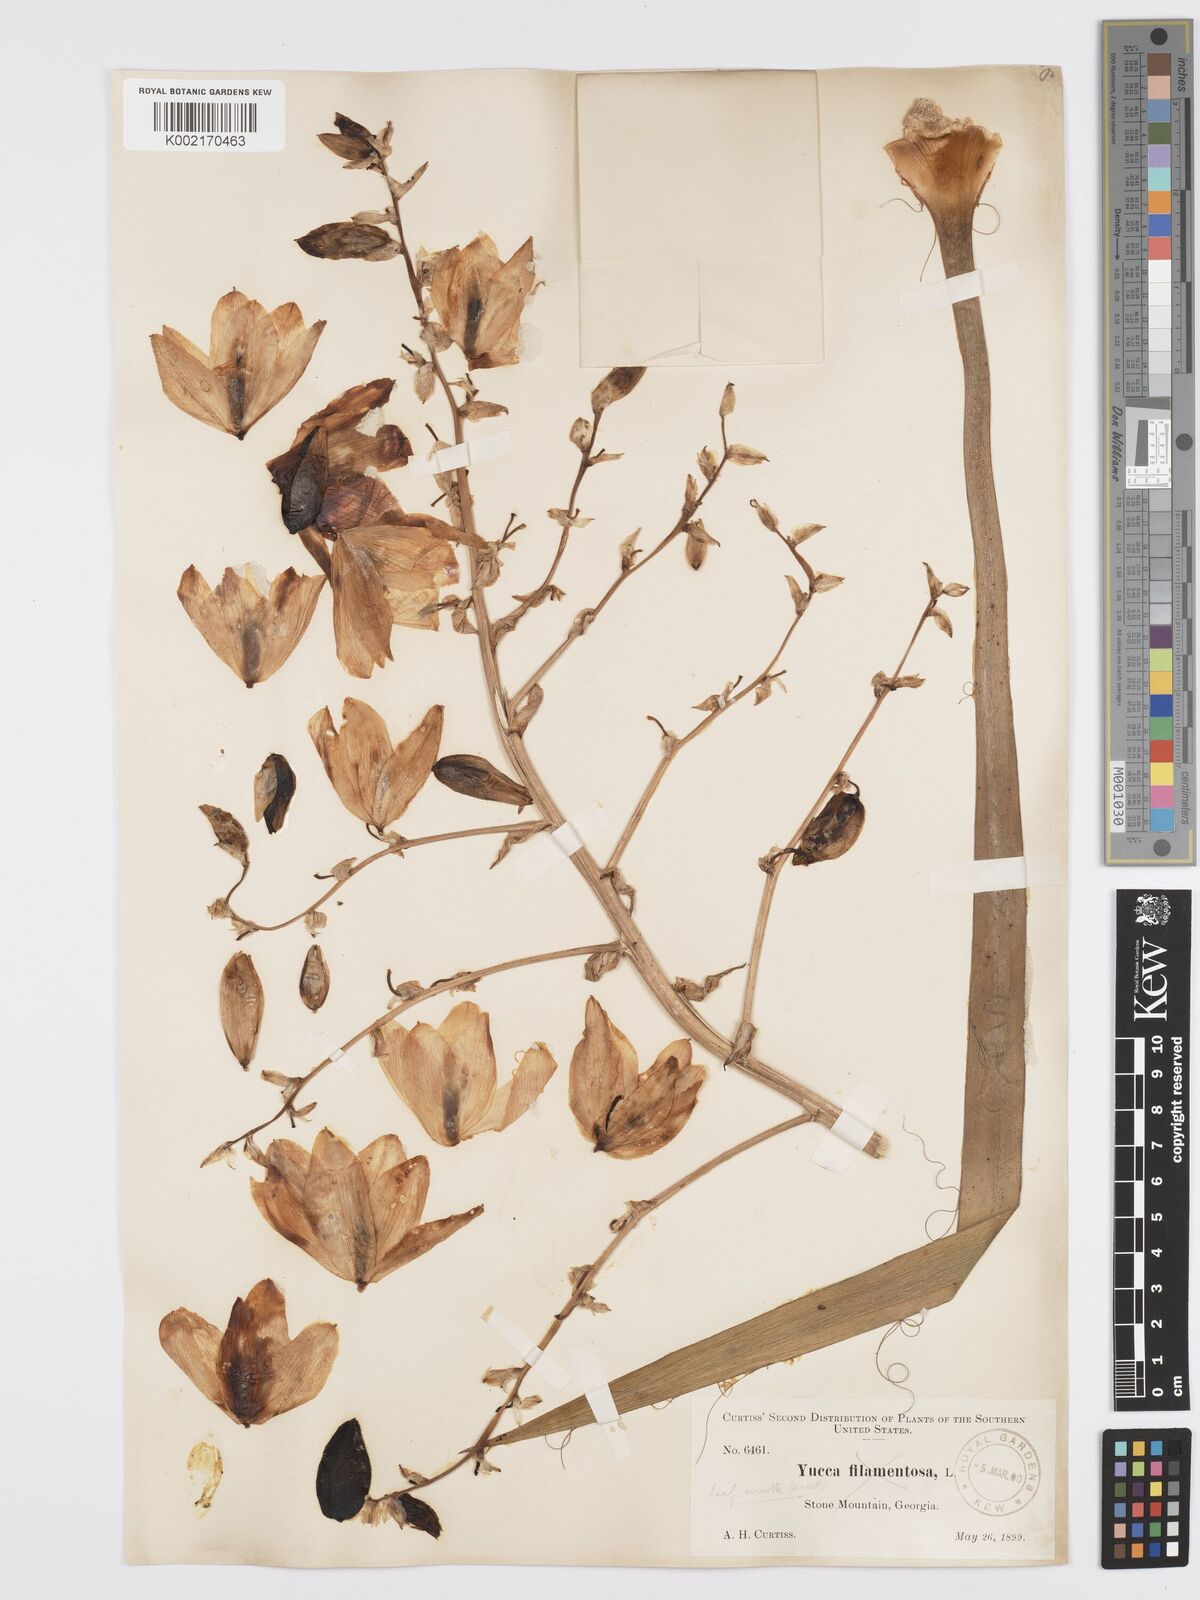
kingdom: Plantae
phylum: Tracheophyta
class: Liliopsida
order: Asparagales
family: Asparagaceae
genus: Yucca
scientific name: Yucca filamentosa
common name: Adam's-needle
